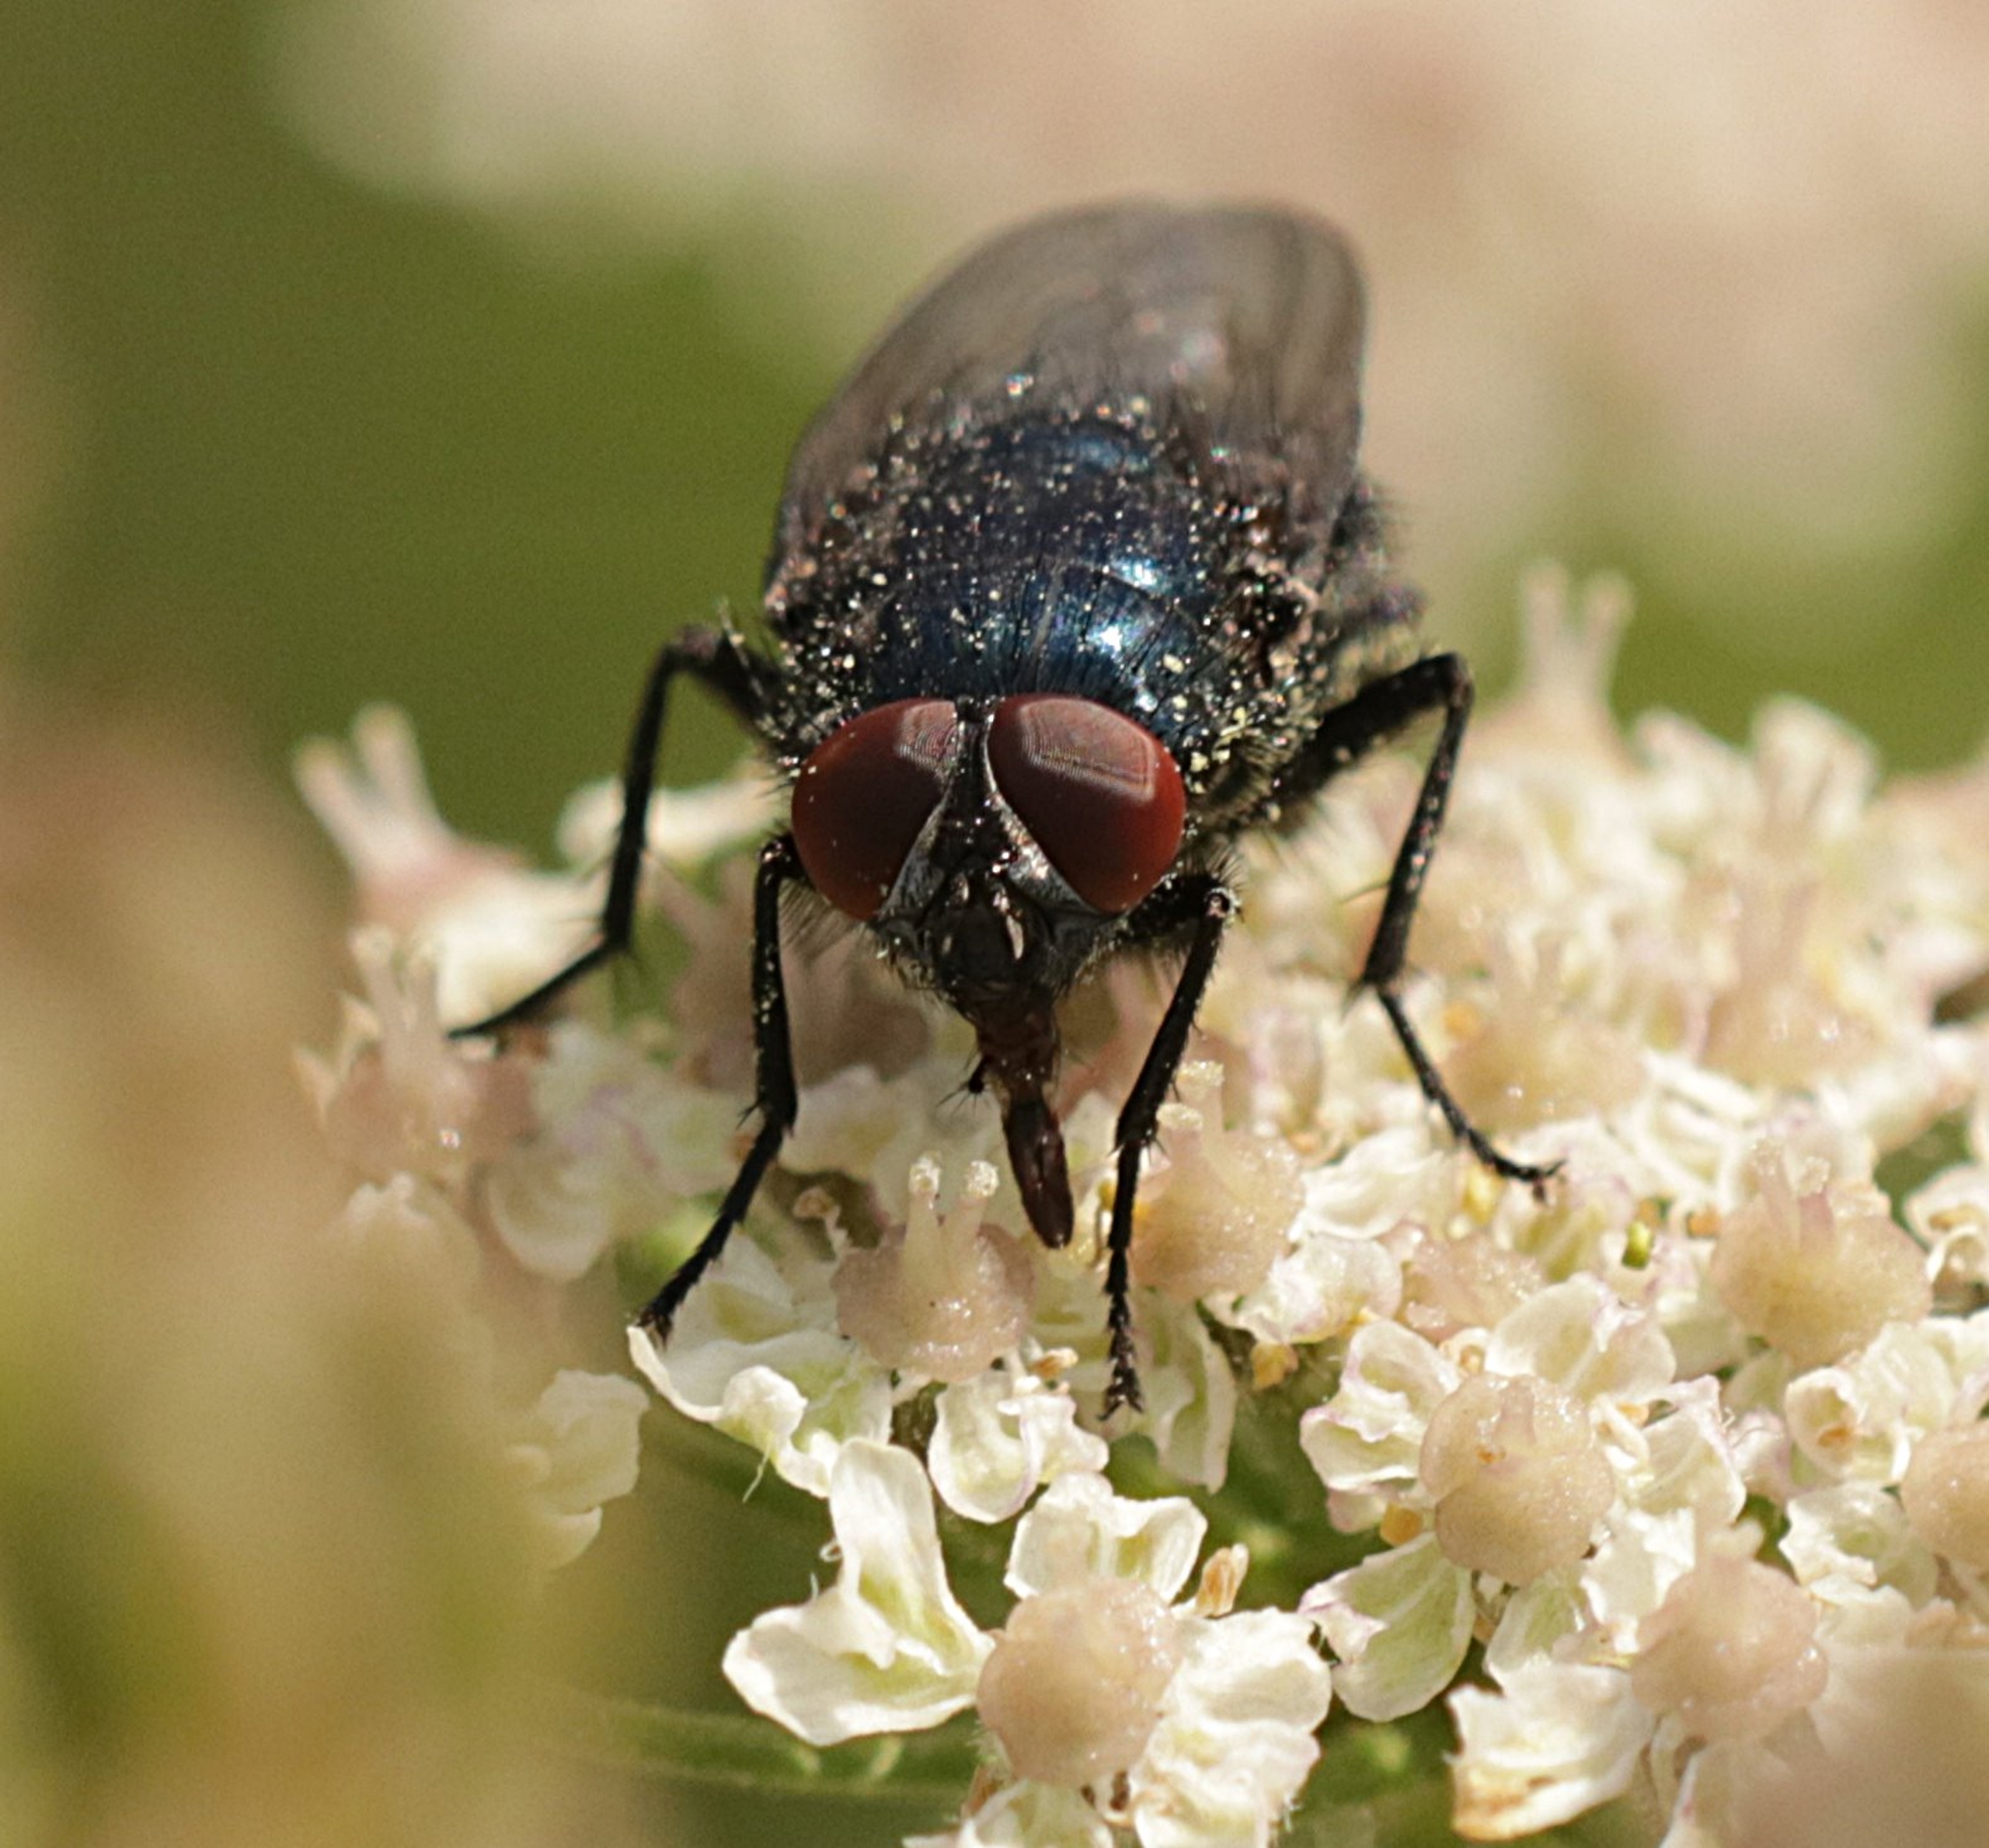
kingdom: Animalia
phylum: Arthropoda
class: Insecta
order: Diptera
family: Calliphoridae
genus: Protocalliphora
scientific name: Protocalliphora azurea
